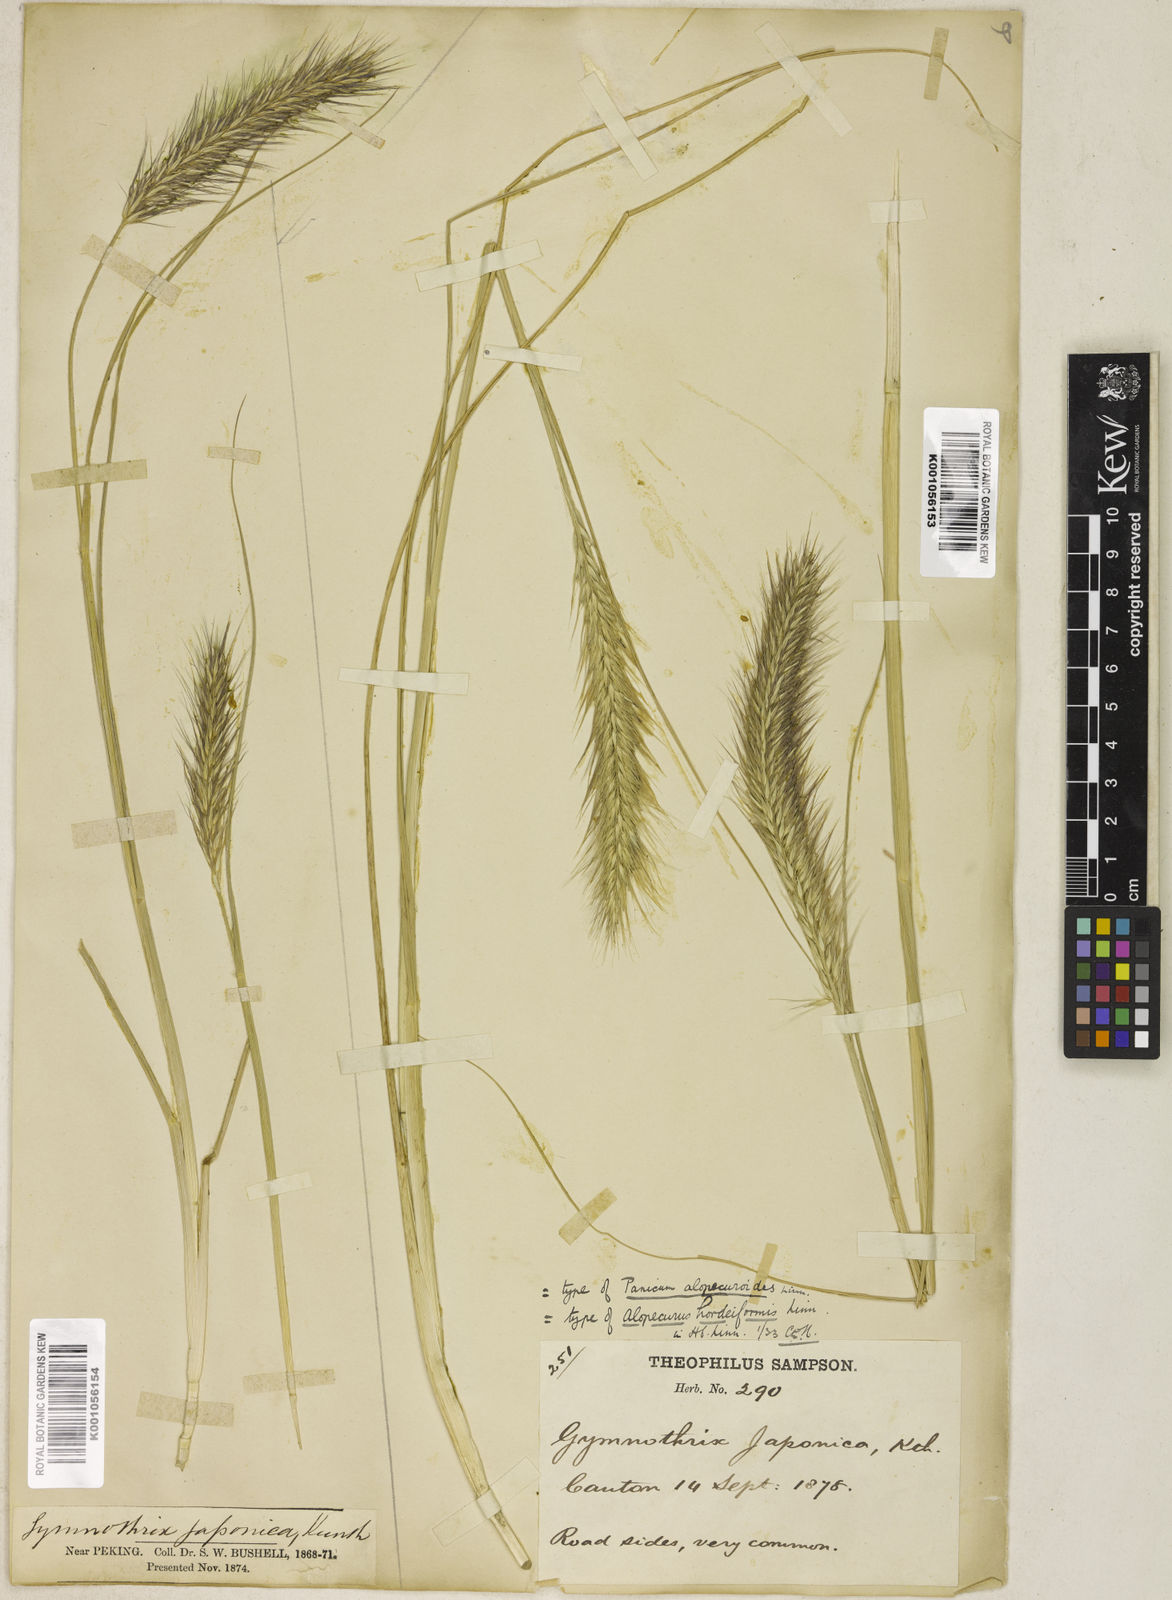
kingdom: Plantae
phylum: Tracheophyta
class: Liliopsida
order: Poales
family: Poaceae
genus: Cenchrus
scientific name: Cenchrus alopecuroides
